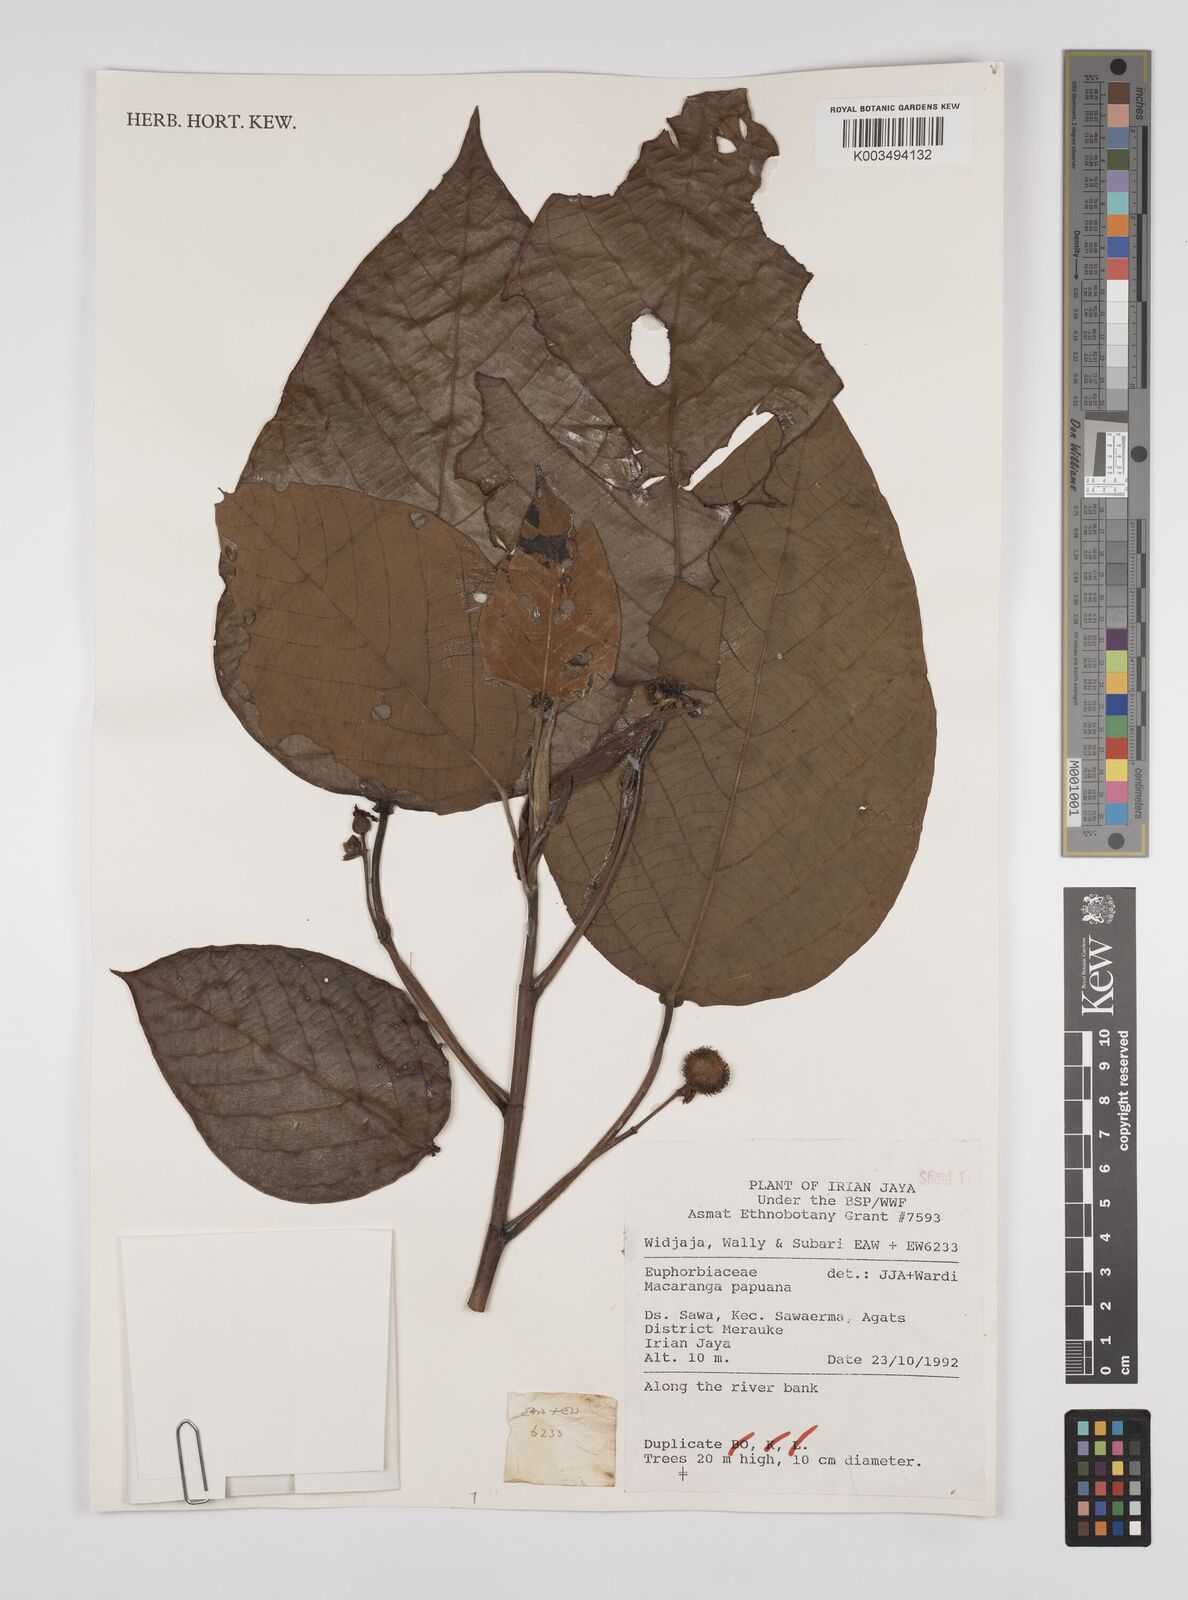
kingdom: Plantae
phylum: Tracheophyta
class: Magnoliopsida
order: Malpighiales
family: Euphorbiaceae
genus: Macaranga
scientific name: Macaranga aleuritoides
